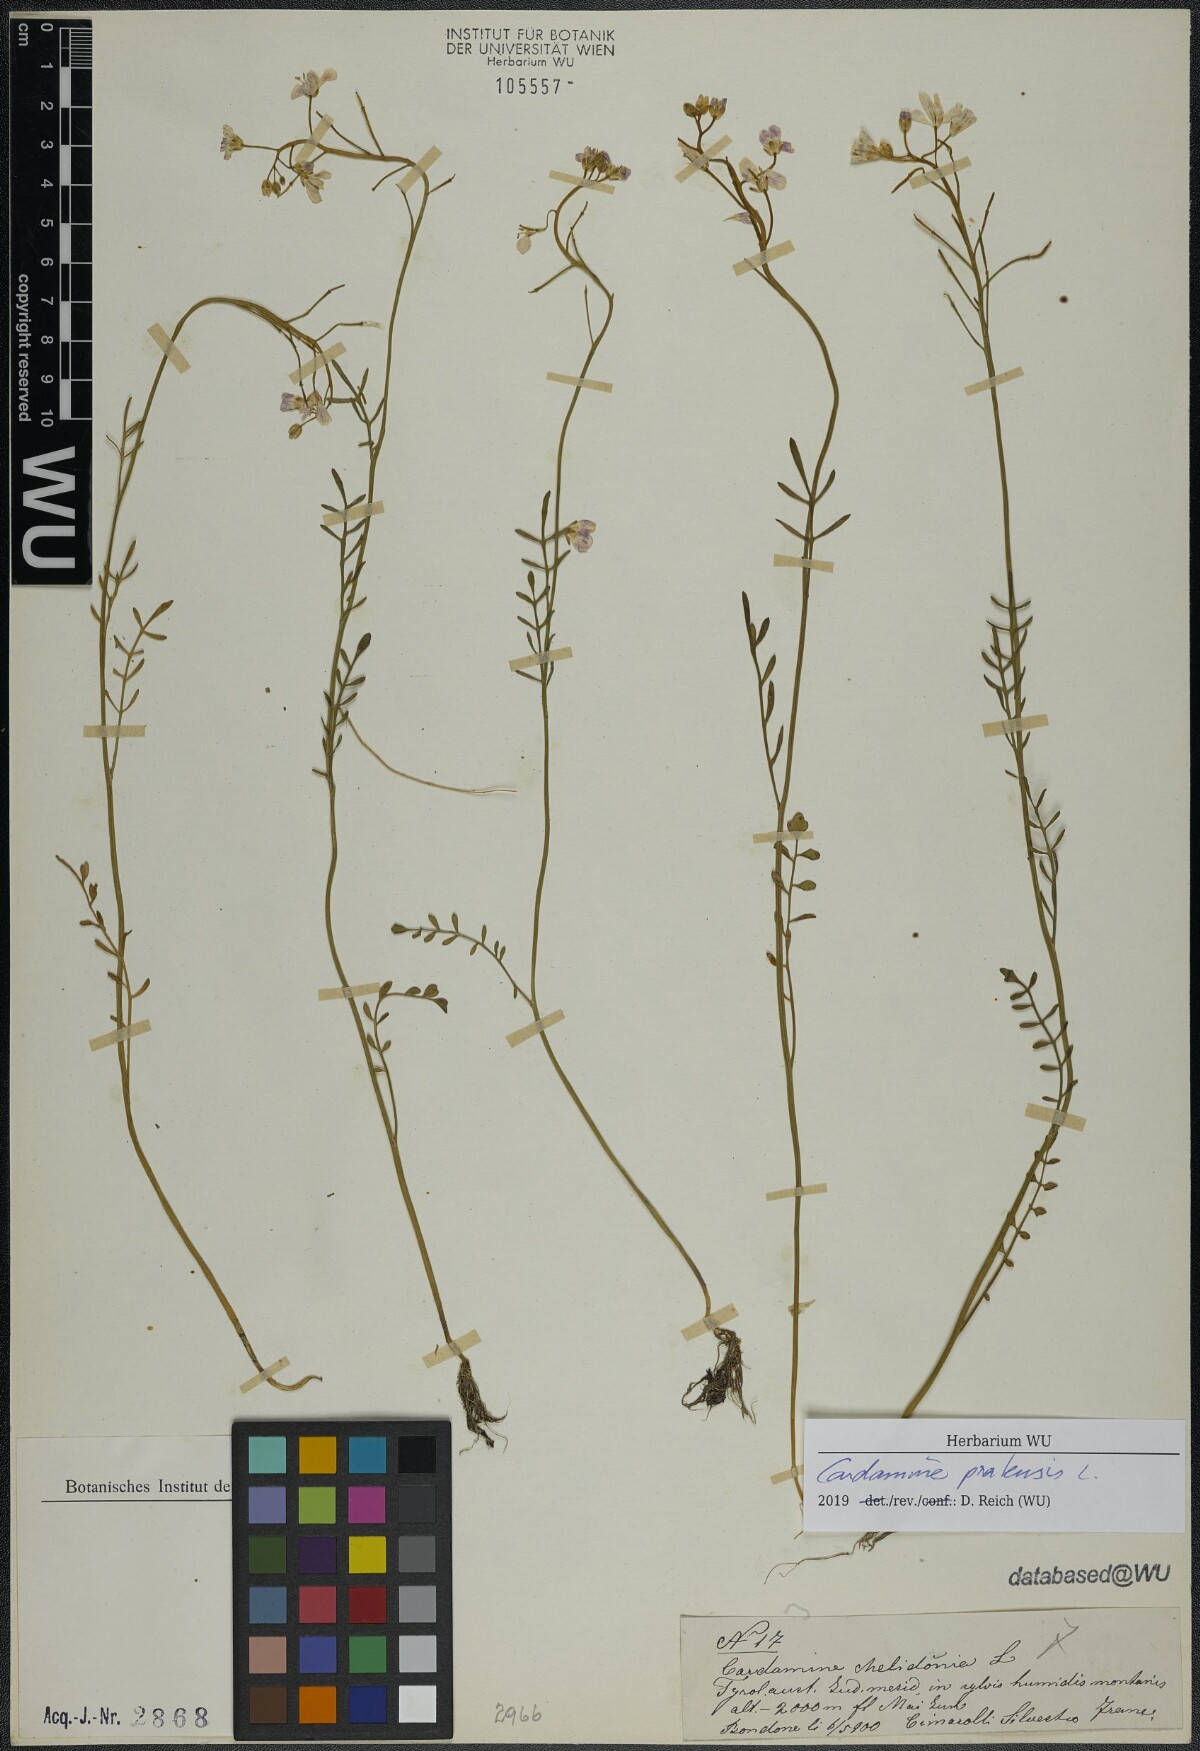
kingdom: Plantae
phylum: Tracheophyta
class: Magnoliopsida
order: Brassicales
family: Brassicaceae
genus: Cardamine
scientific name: Cardamine pratensis
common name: Cuckoo flower
